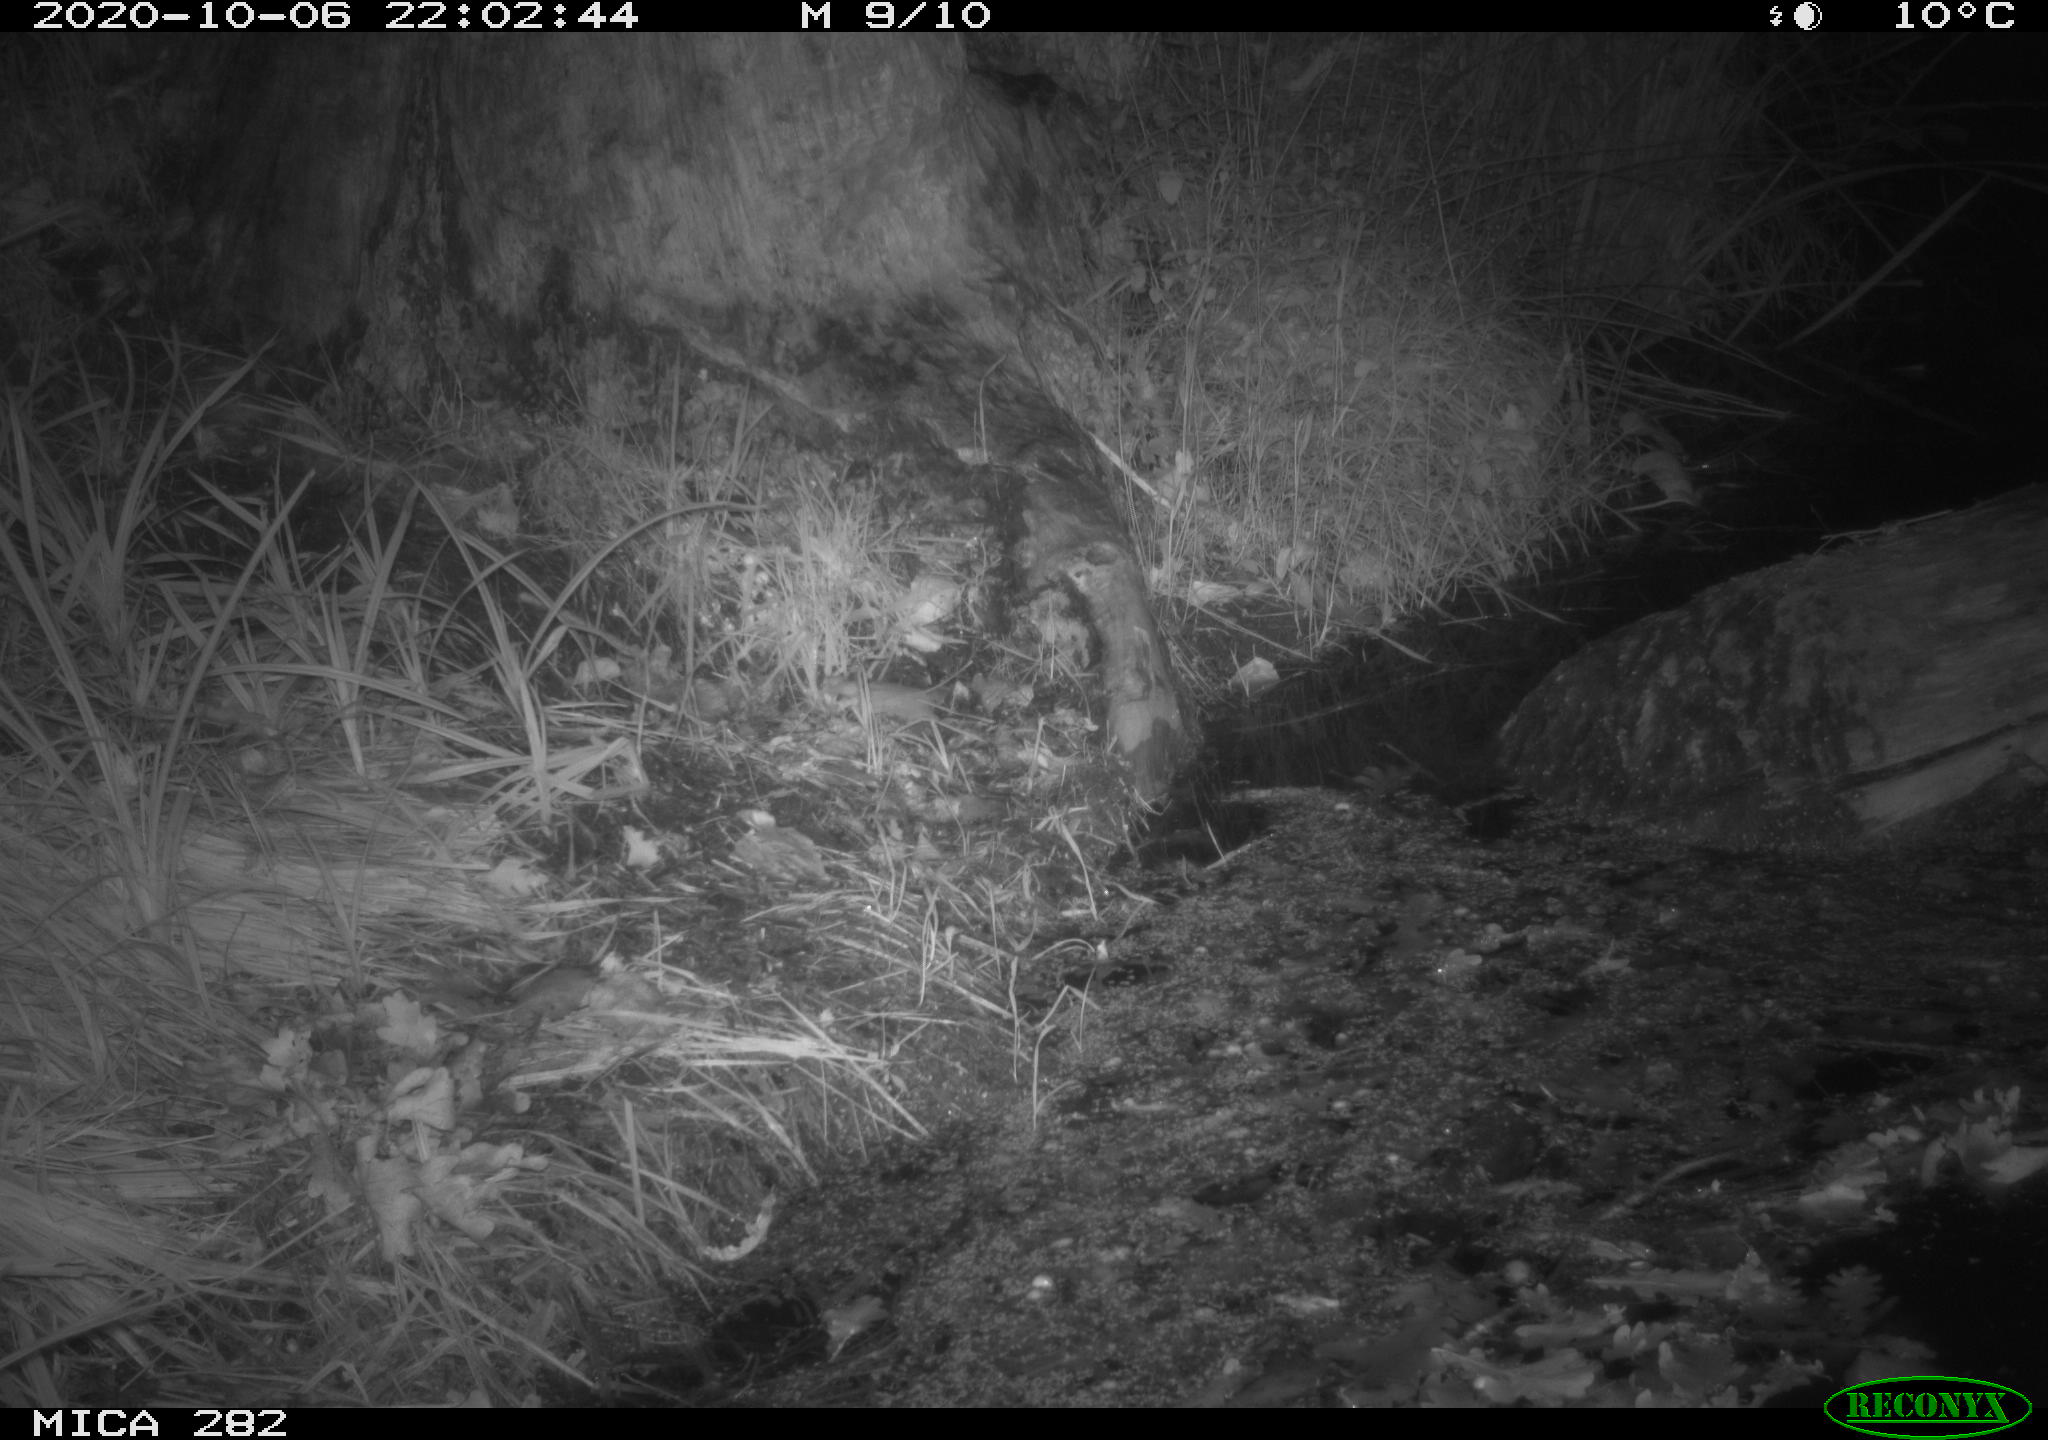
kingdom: Animalia
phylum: Chordata
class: Mammalia
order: Rodentia
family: Muridae
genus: Rattus
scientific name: Rattus norvegicus
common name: Brown rat
